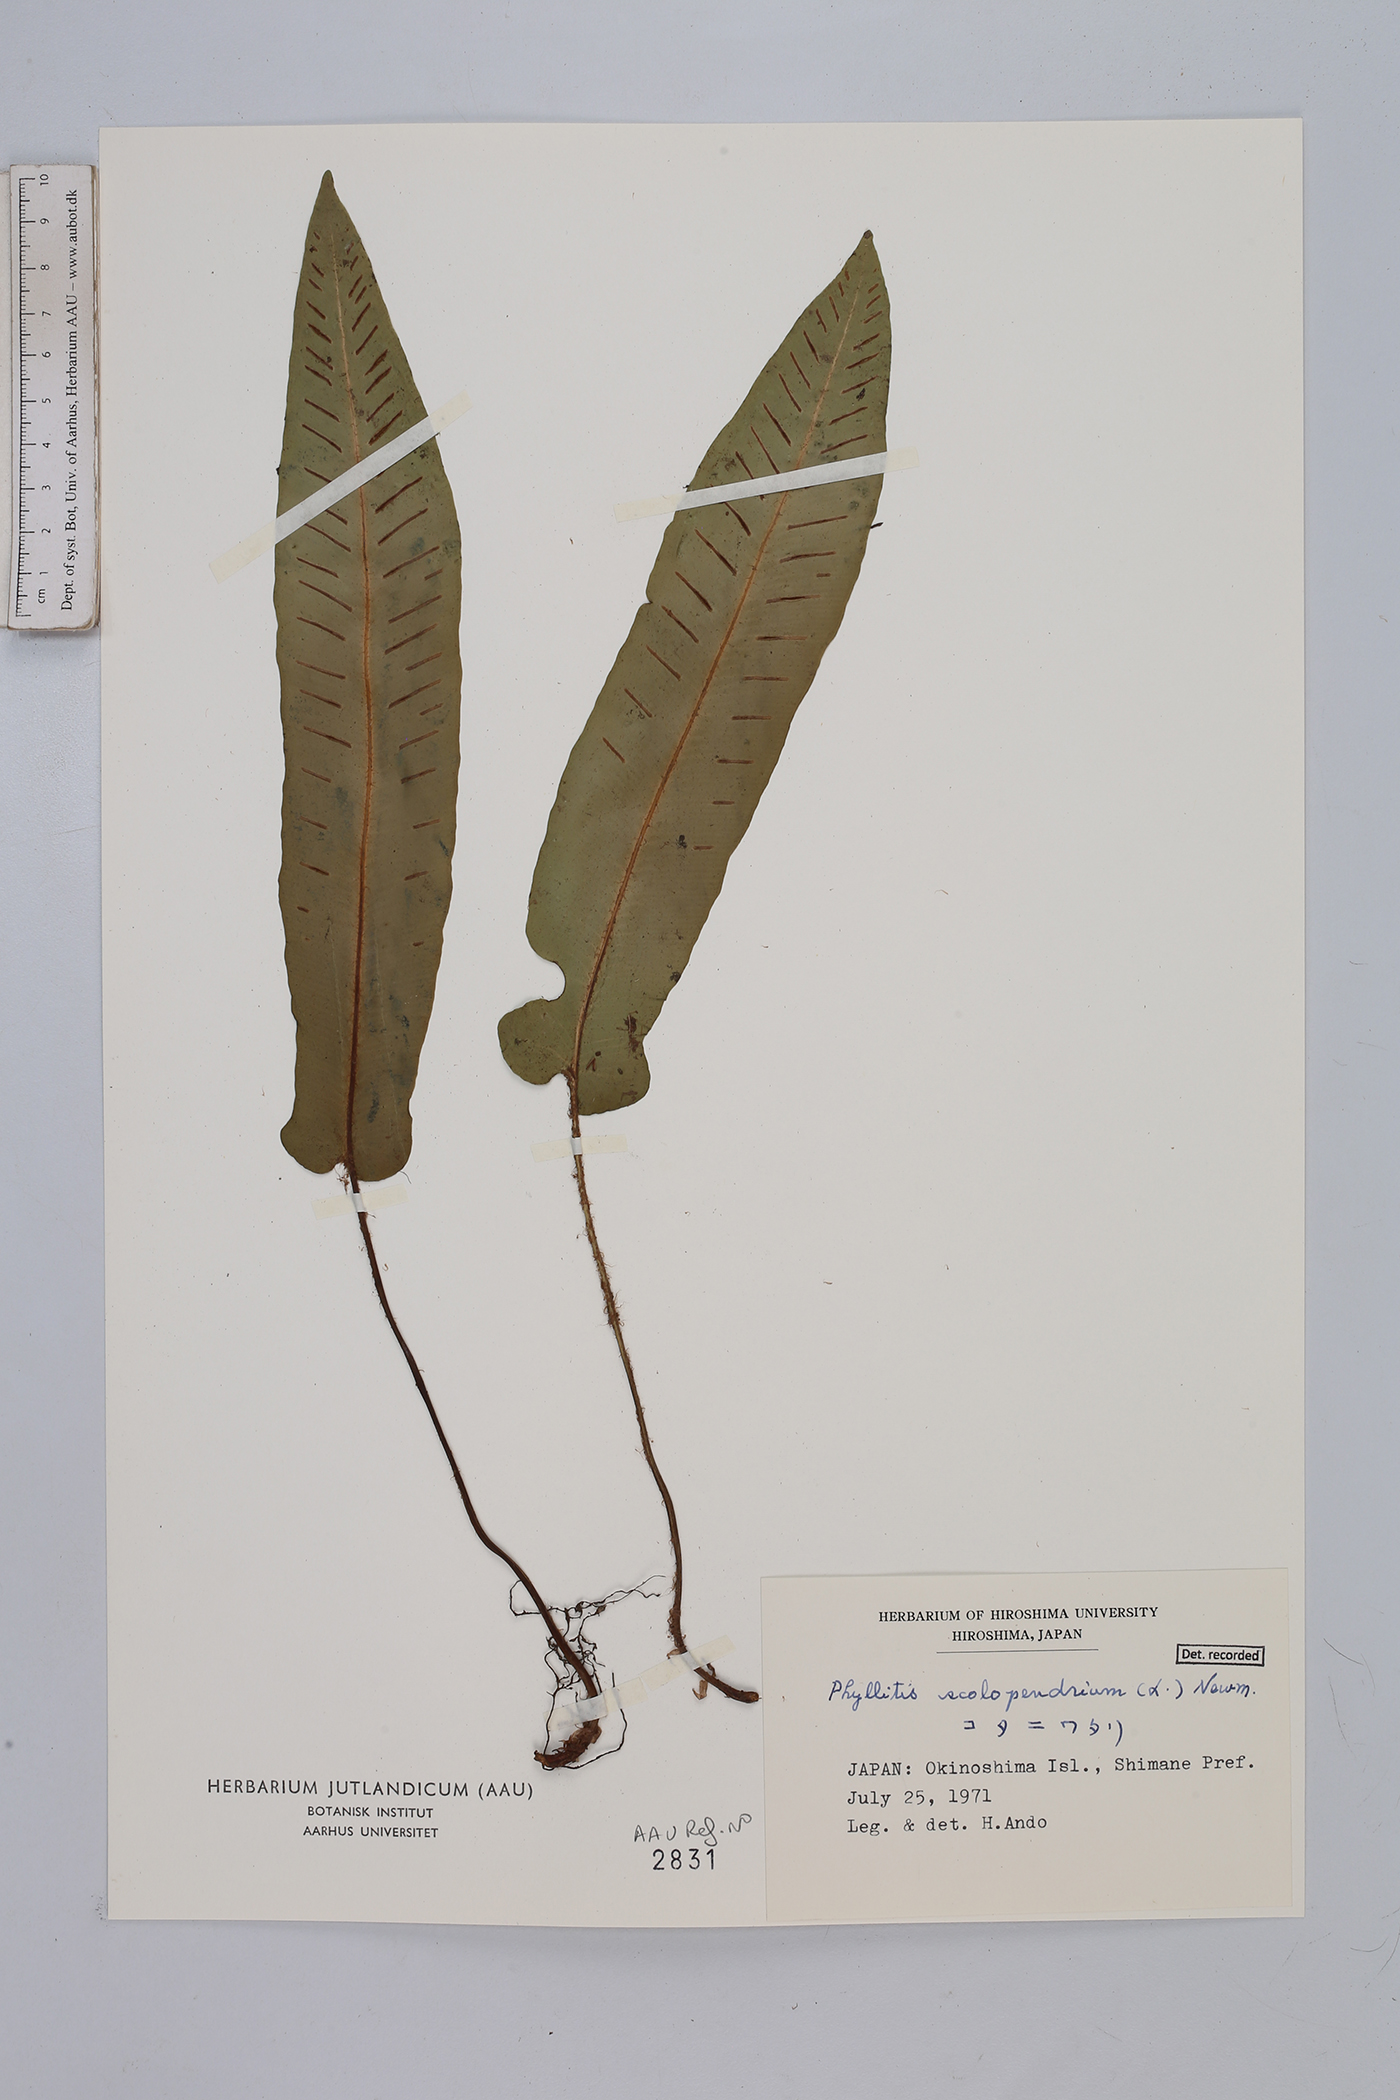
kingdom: Plantae
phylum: Tracheophyta
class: Polypodiopsida
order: Polypodiales
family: Aspleniaceae
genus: Asplenium
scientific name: Asplenium scolopendrium
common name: Hart's-tongue fern
